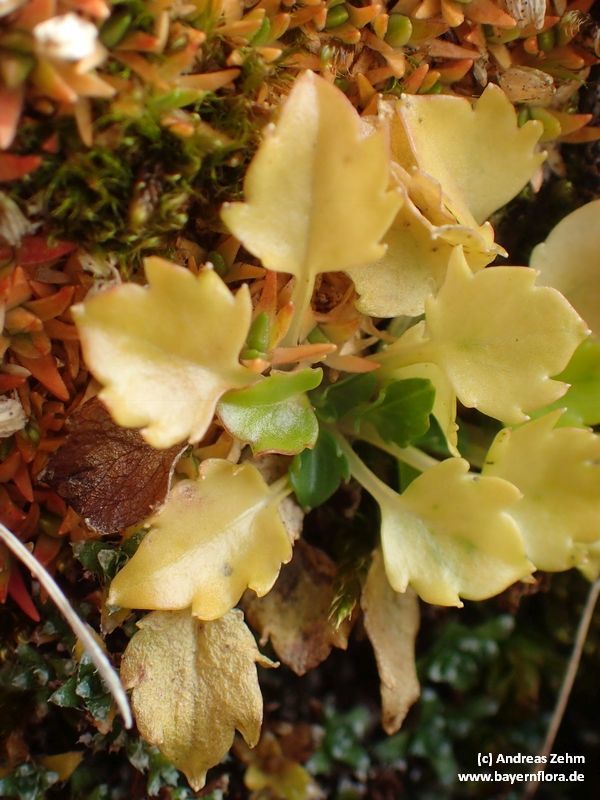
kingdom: Plantae
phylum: Tracheophyta
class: Magnoliopsida
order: Asterales
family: Campanulaceae
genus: Campanula
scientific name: Campanula cochleariifolia
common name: Fairies'-thimbles
